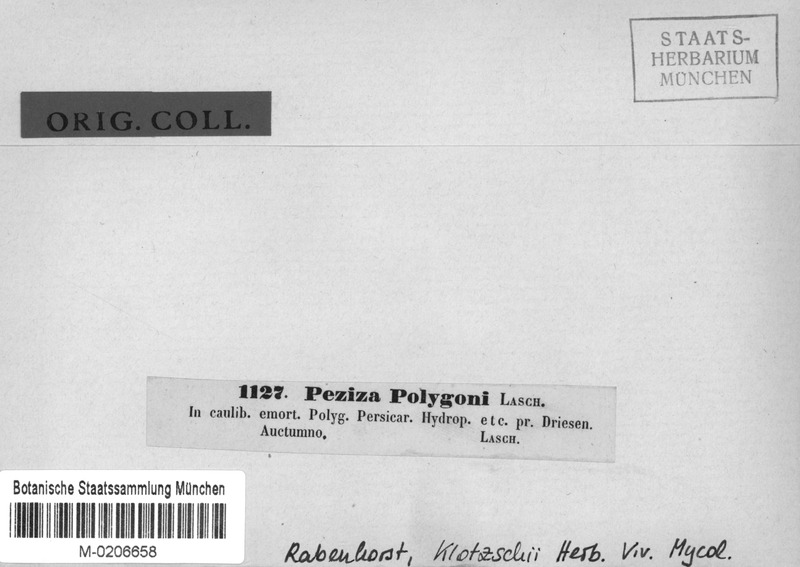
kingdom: Fungi
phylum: Ascomycota
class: Leotiomycetes
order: Helotiales
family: Mollisiaceae
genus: Mollisia
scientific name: Mollisia polygoni
